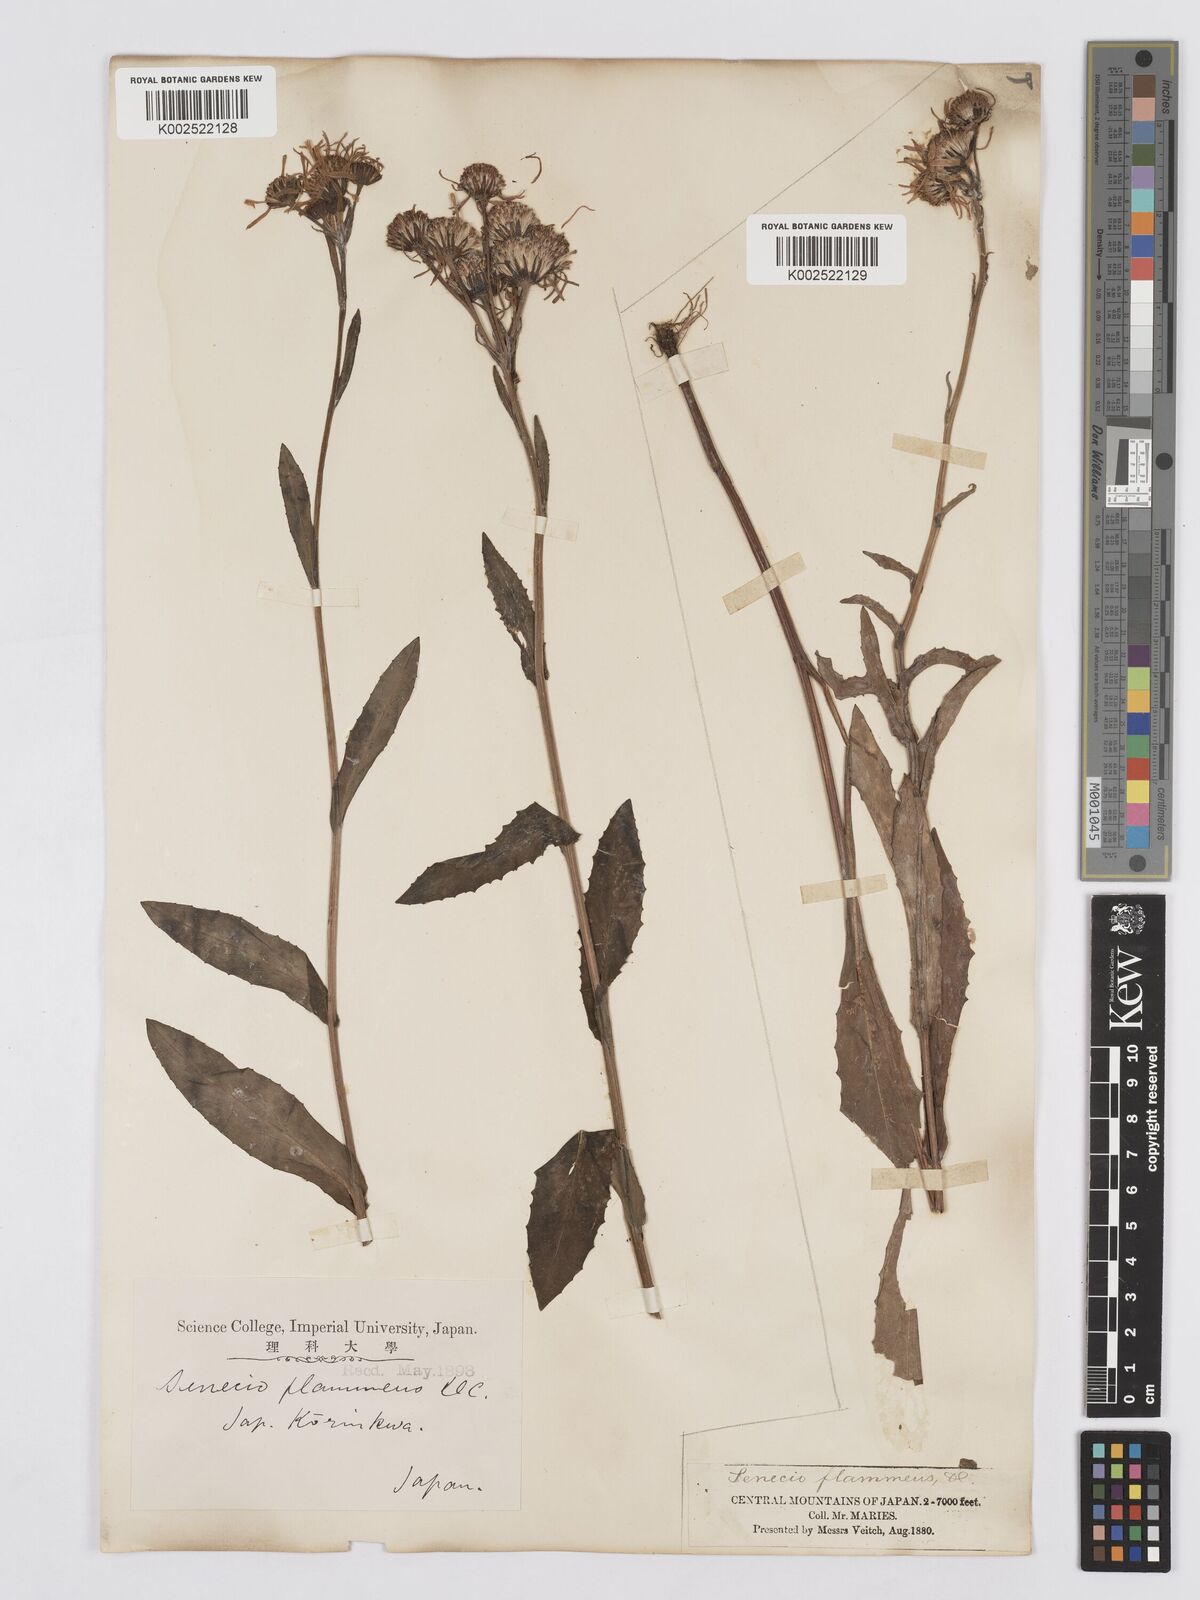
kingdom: Plantae
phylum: Tracheophyta
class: Magnoliopsida
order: Asterales
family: Asteraceae
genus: Tephroseris
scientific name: Tephroseris flammea
